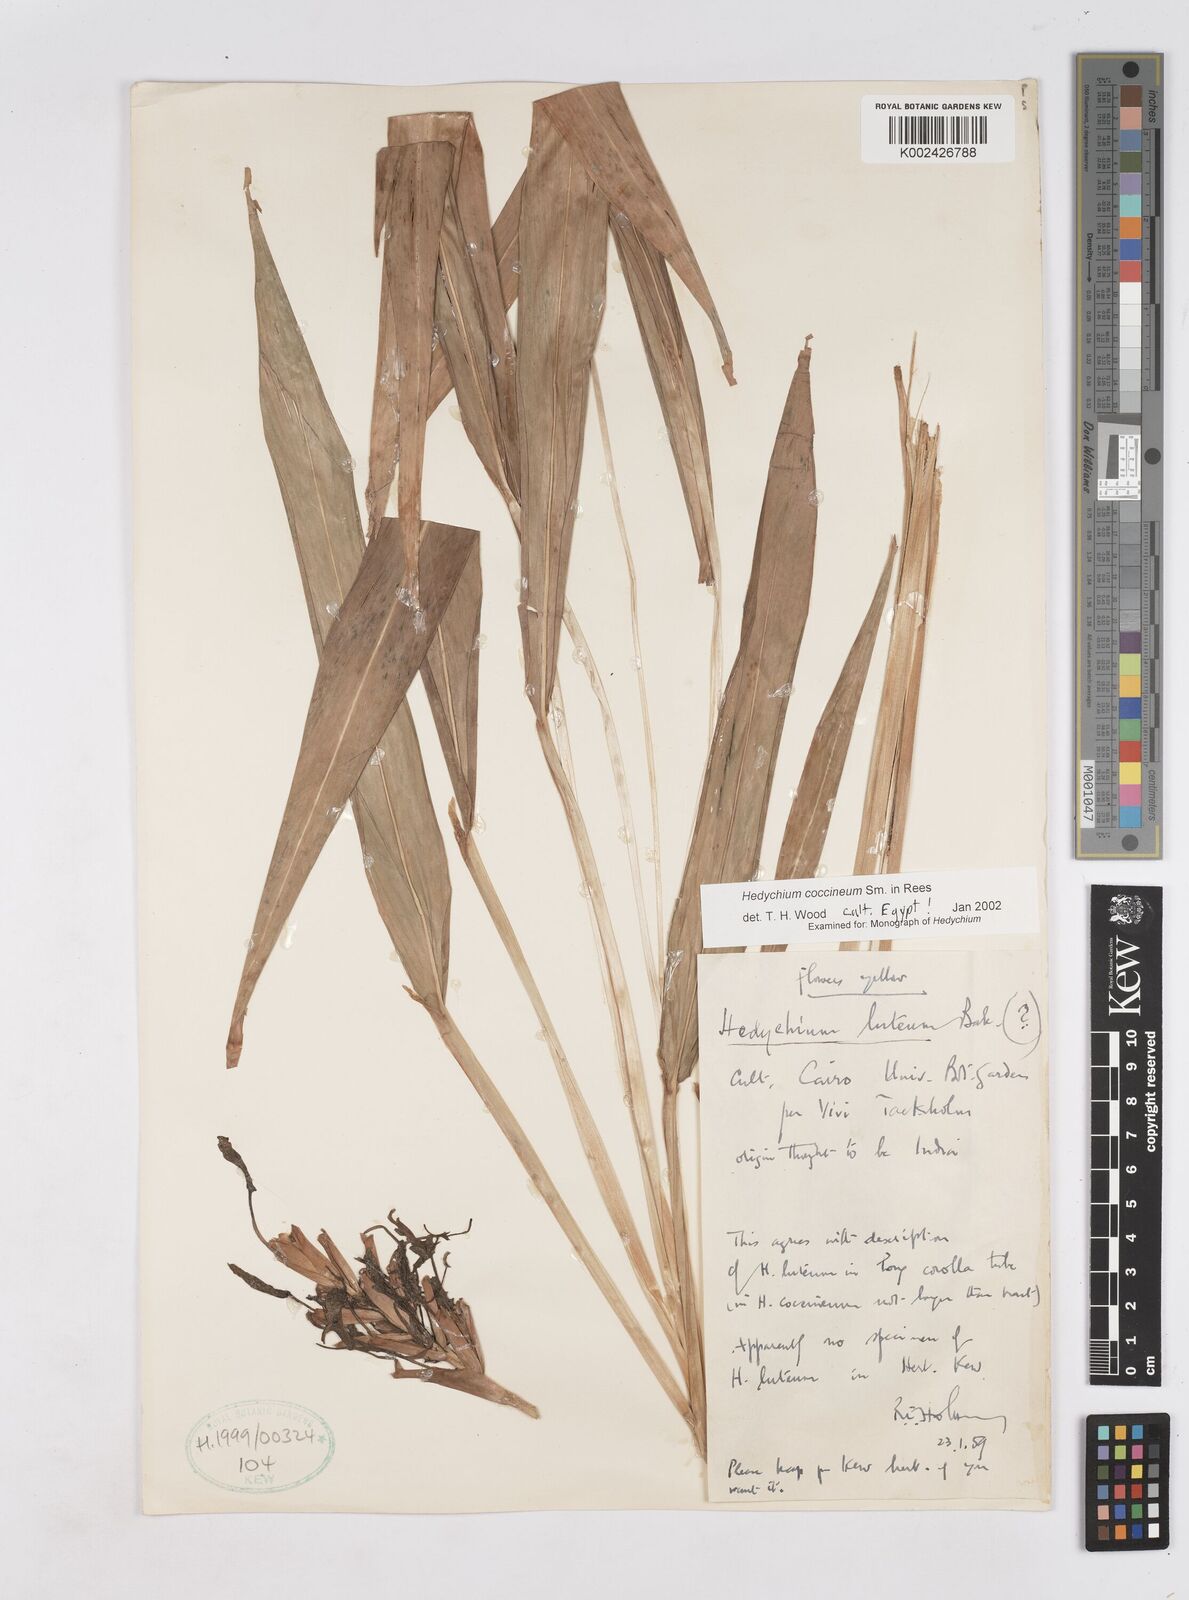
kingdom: Plantae
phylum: Tracheophyta
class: Liliopsida
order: Zingiberales
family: Zingiberaceae
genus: Hedychium
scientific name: Hedychium coccineum
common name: Red ginger-lily
